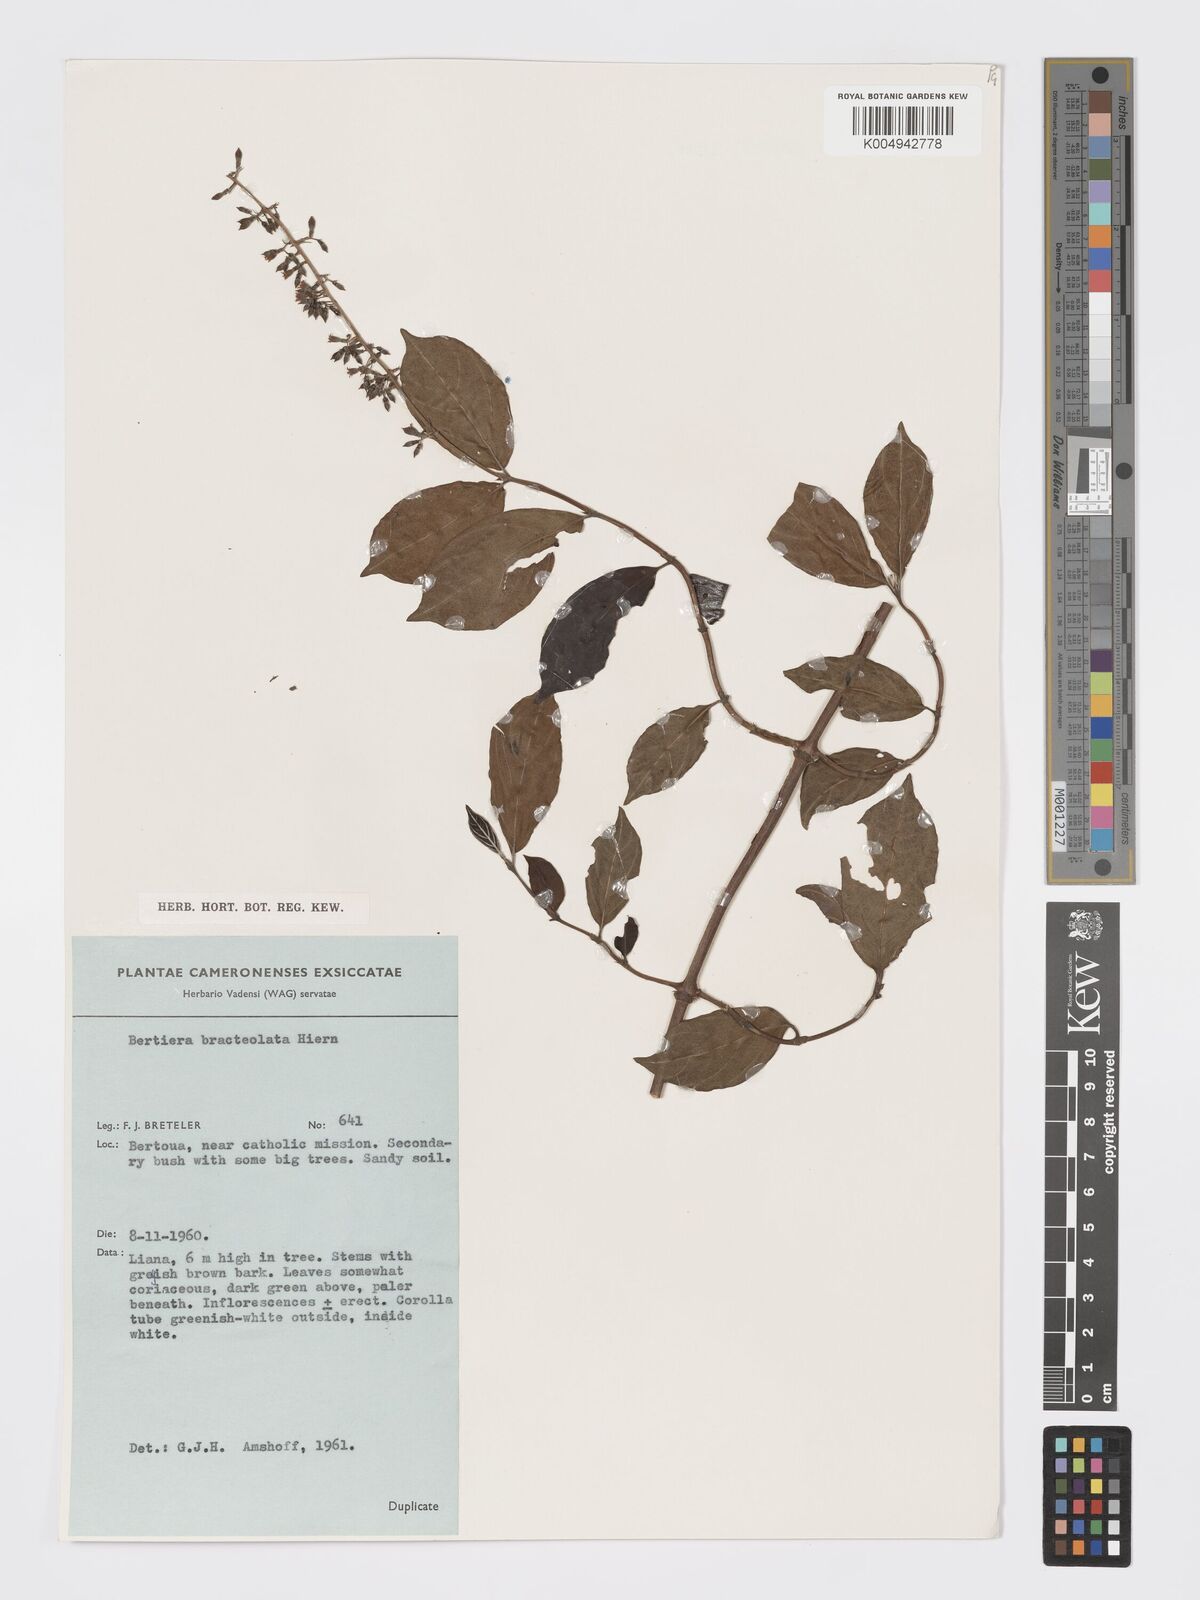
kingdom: Plantae
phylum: Tracheophyta
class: Magnoliopsida
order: Gentianales
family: Rubiaceae
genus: Bertiera
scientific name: Bertiera bracteolata
